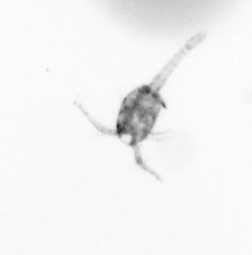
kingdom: Animalia
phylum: Arthropoda
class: Copepoda
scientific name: Copepoda
